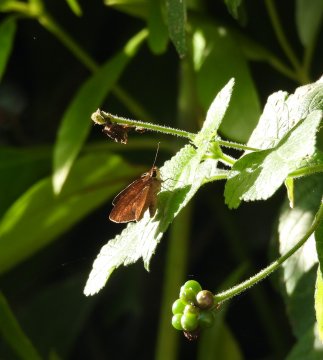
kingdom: Animalia
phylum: Arthropoda
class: Insecta
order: Lepidoptera
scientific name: Lepidoptera
